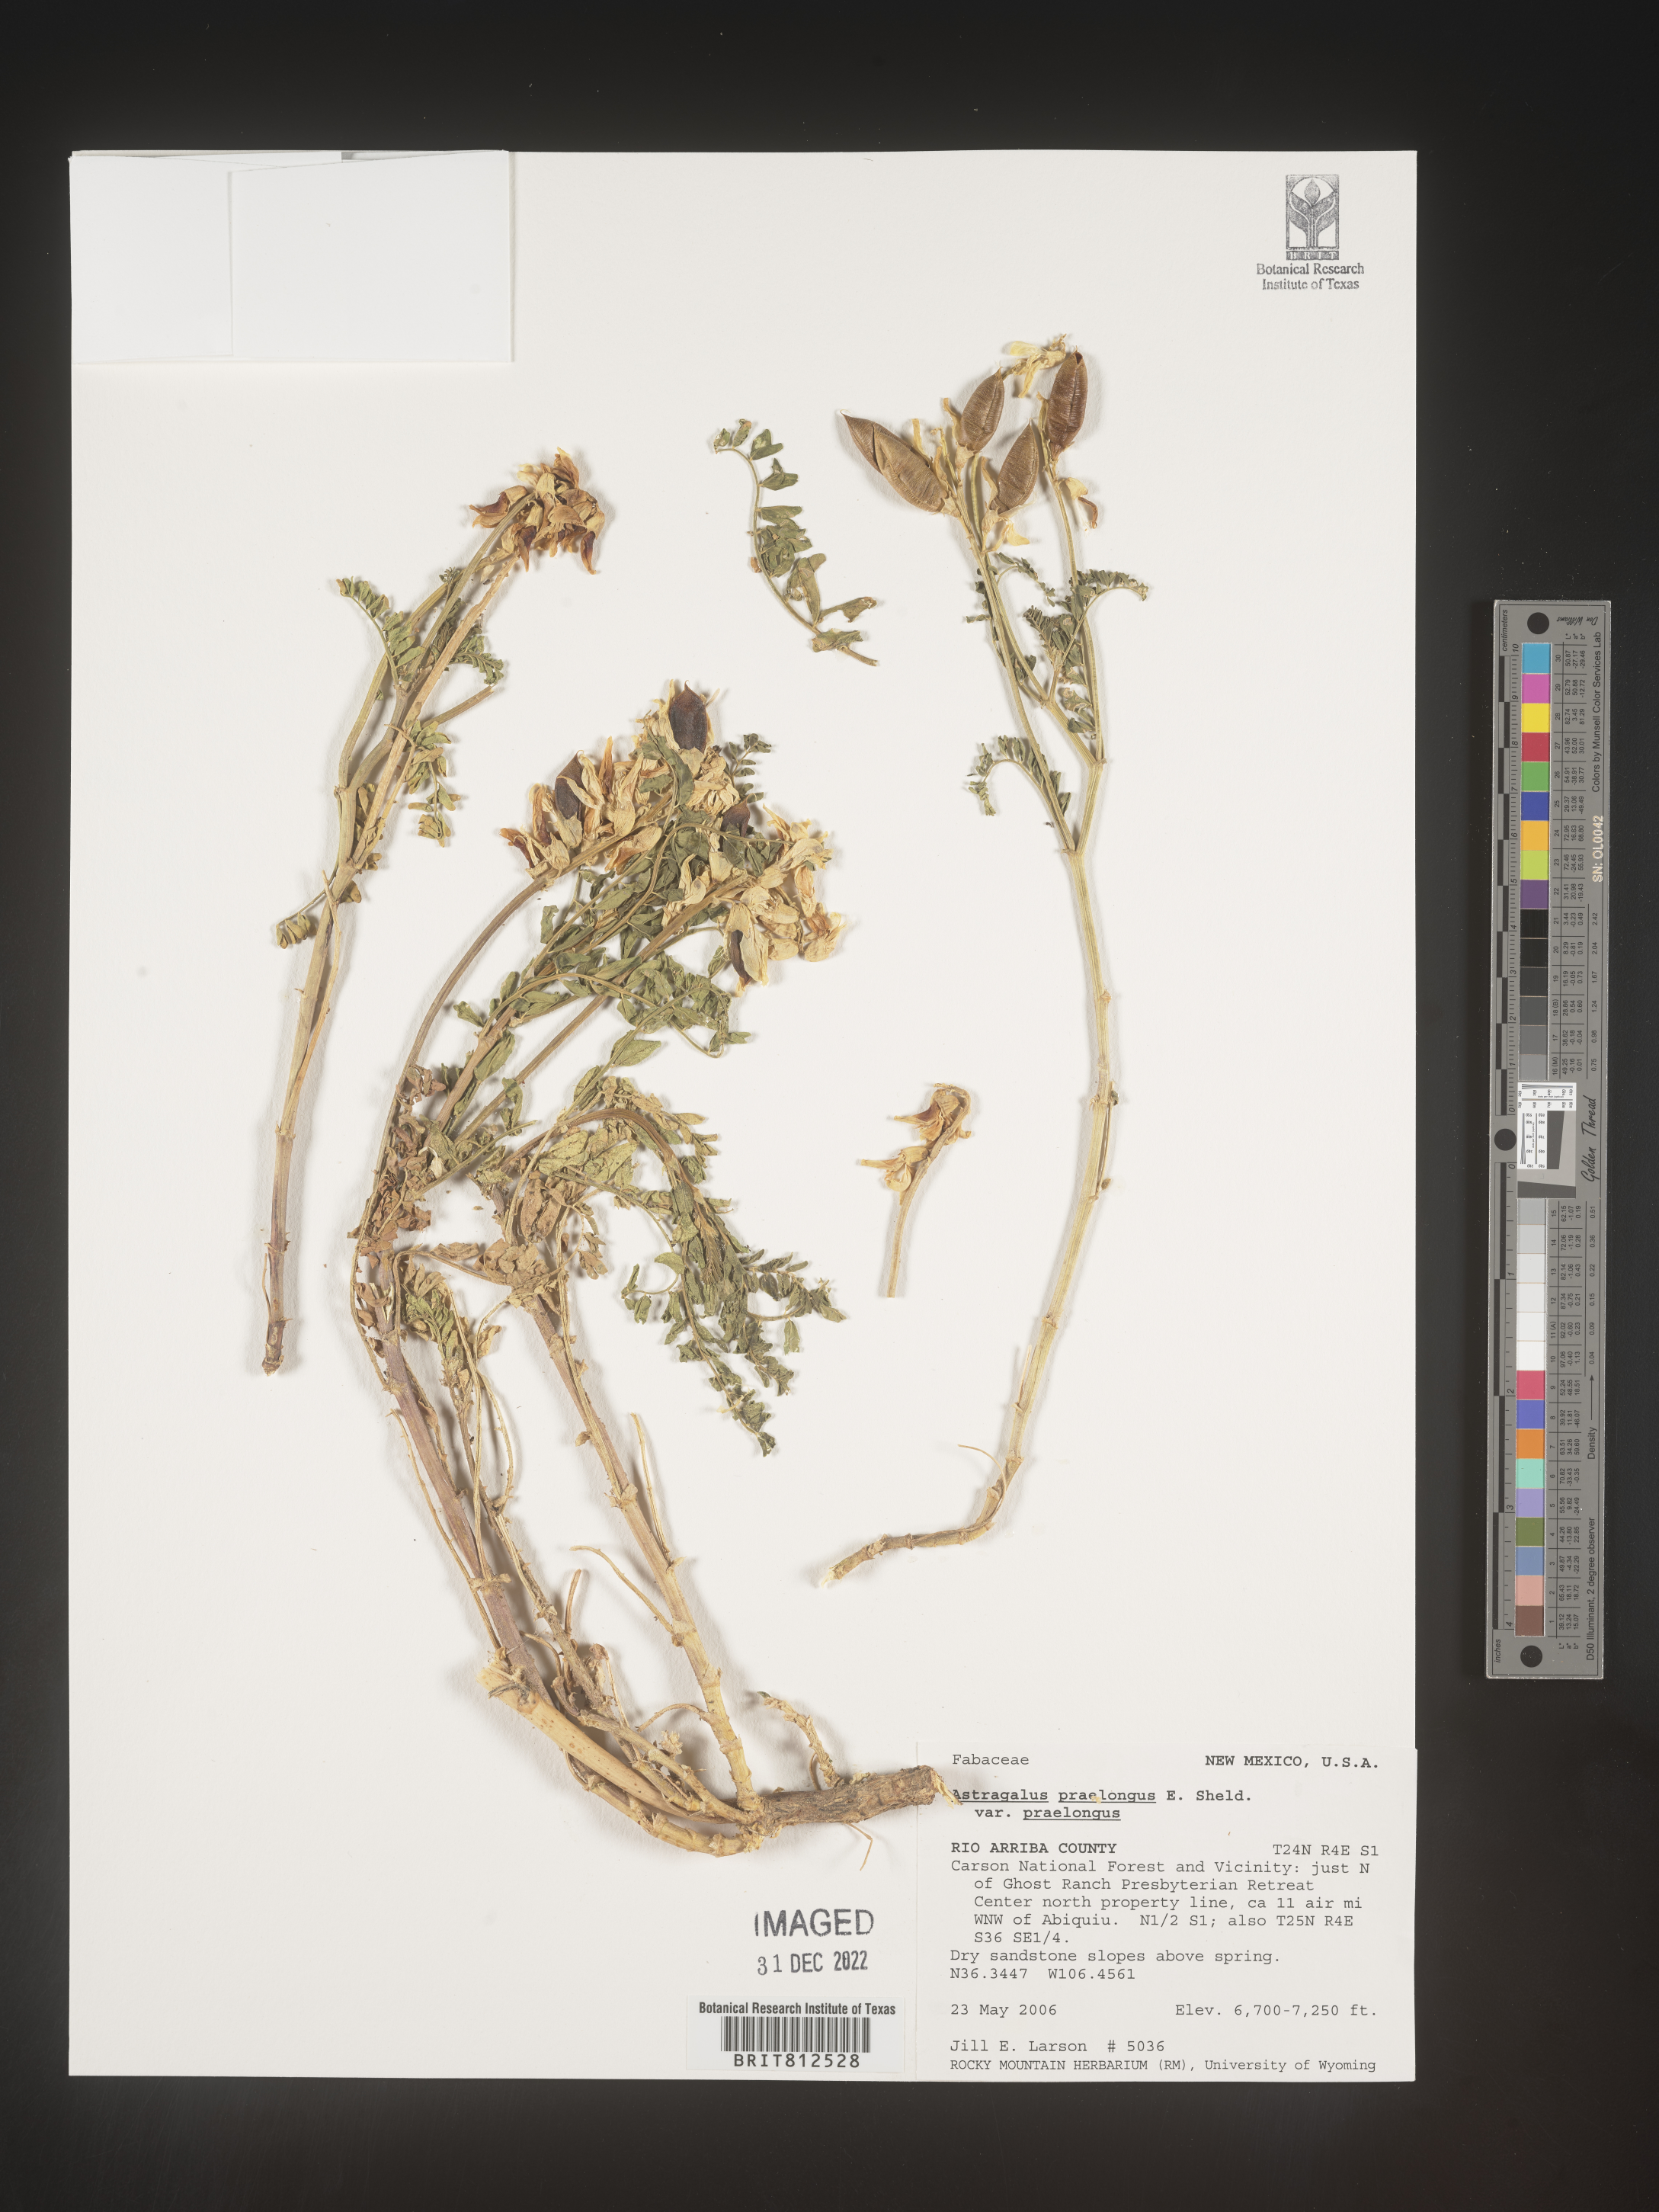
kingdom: Plantae
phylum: Tracheophyta
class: Magnoliopsida
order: Fabales
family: Fabaceae
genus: Astragalus
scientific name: Astragalus
